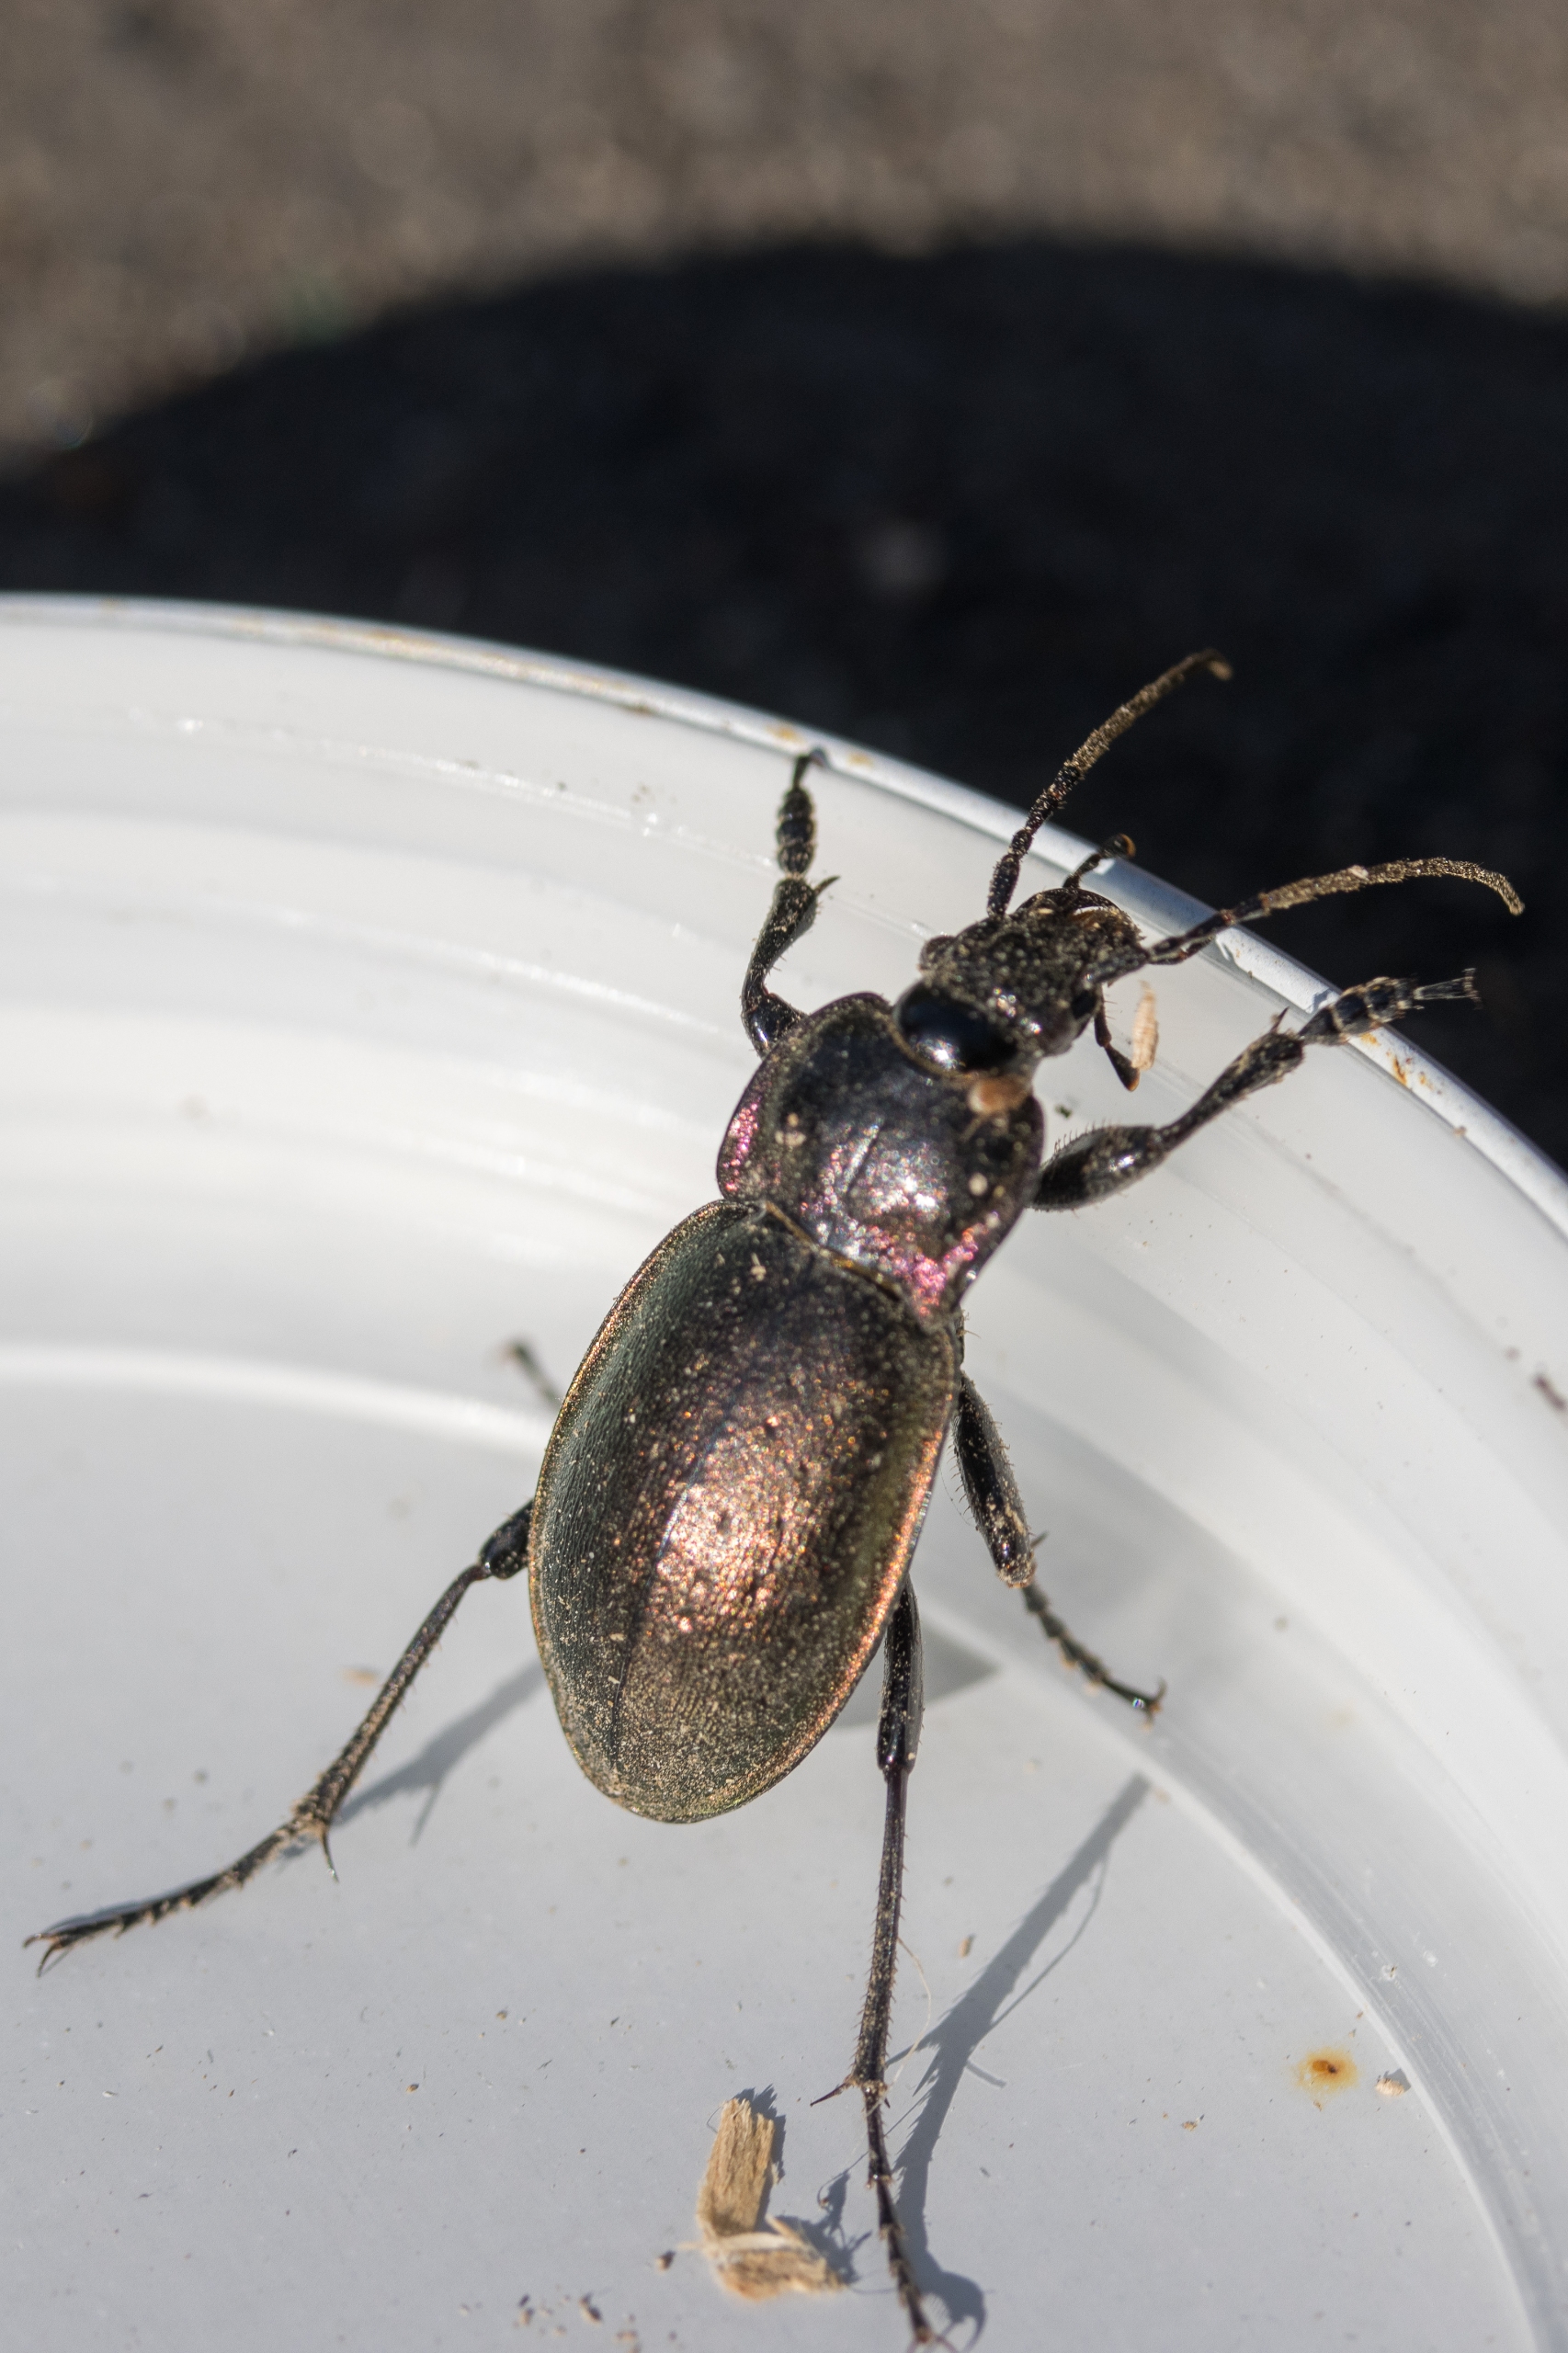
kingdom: Animalia
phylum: Arthropoda
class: Insecta
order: Coleoptera
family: Carabidae
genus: Carabus
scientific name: Carabus nemoralis
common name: Kratløber
